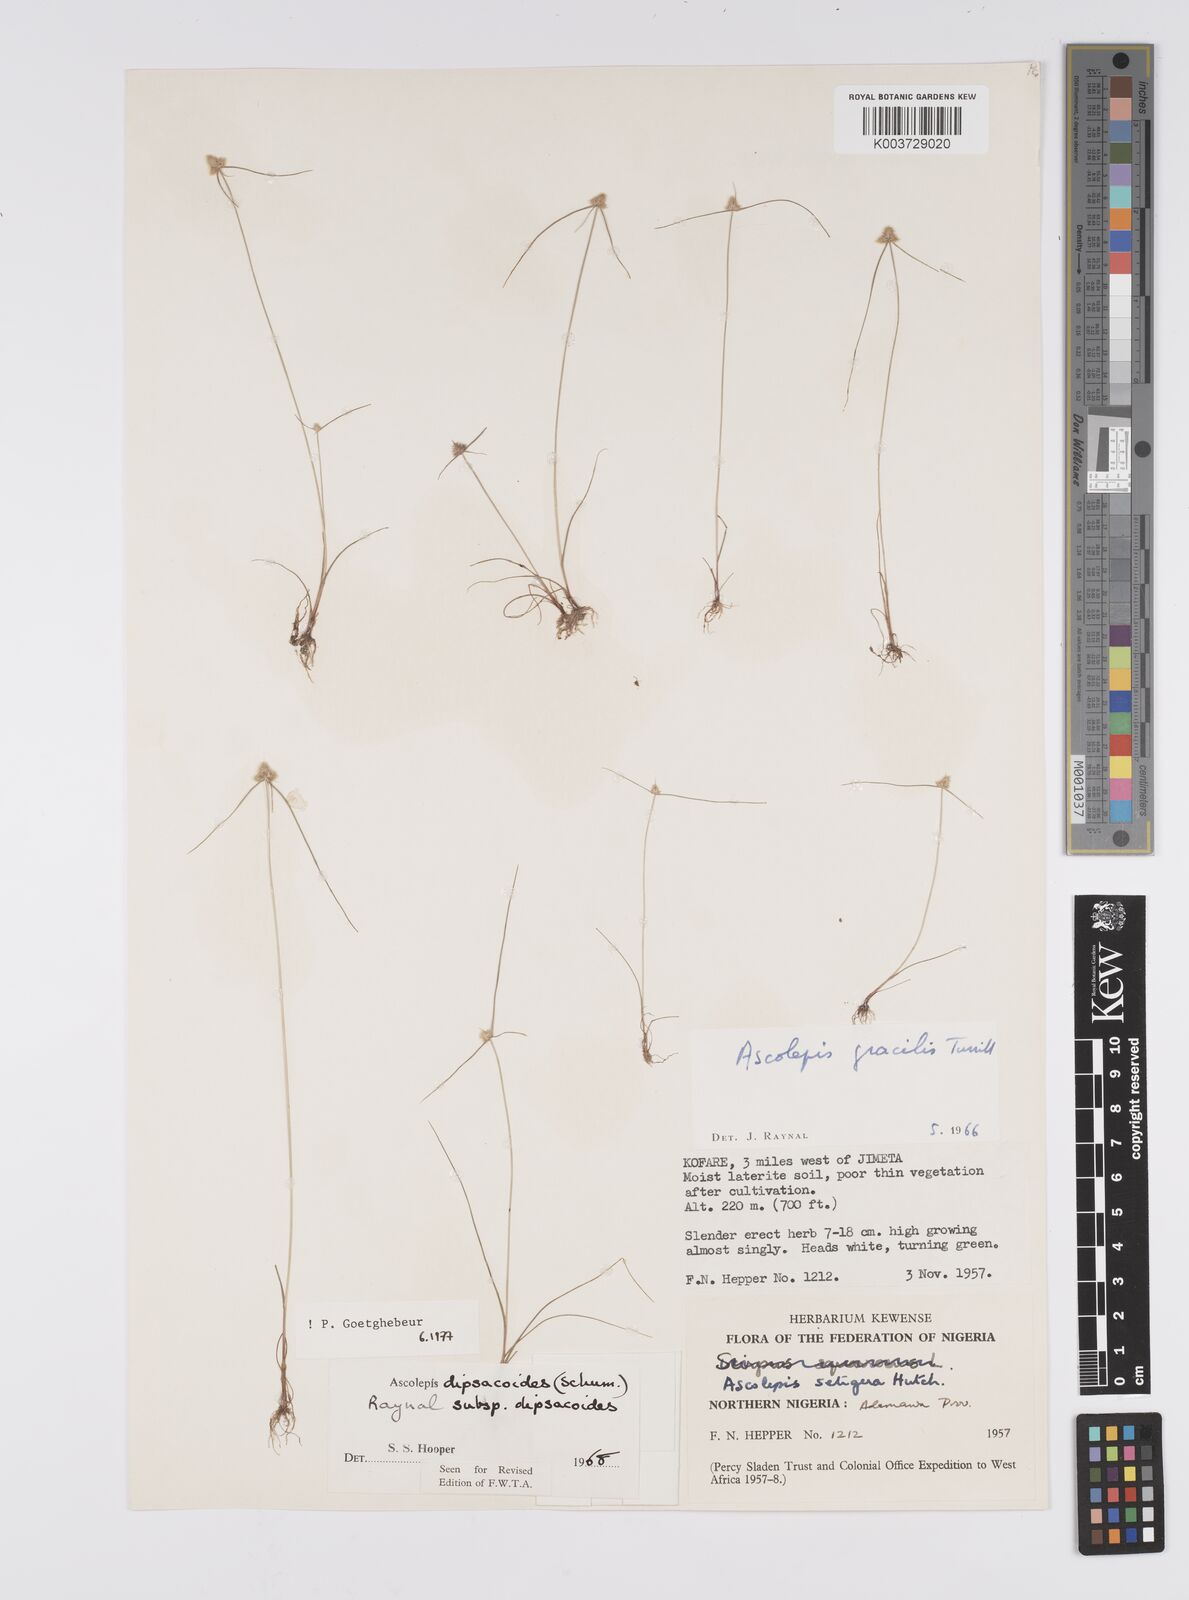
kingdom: Plantae
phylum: Tracheophyta
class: Liliopsida
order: Poales
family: Cyperaceae
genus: Cyperus
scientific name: Cyperus dipsacoides
